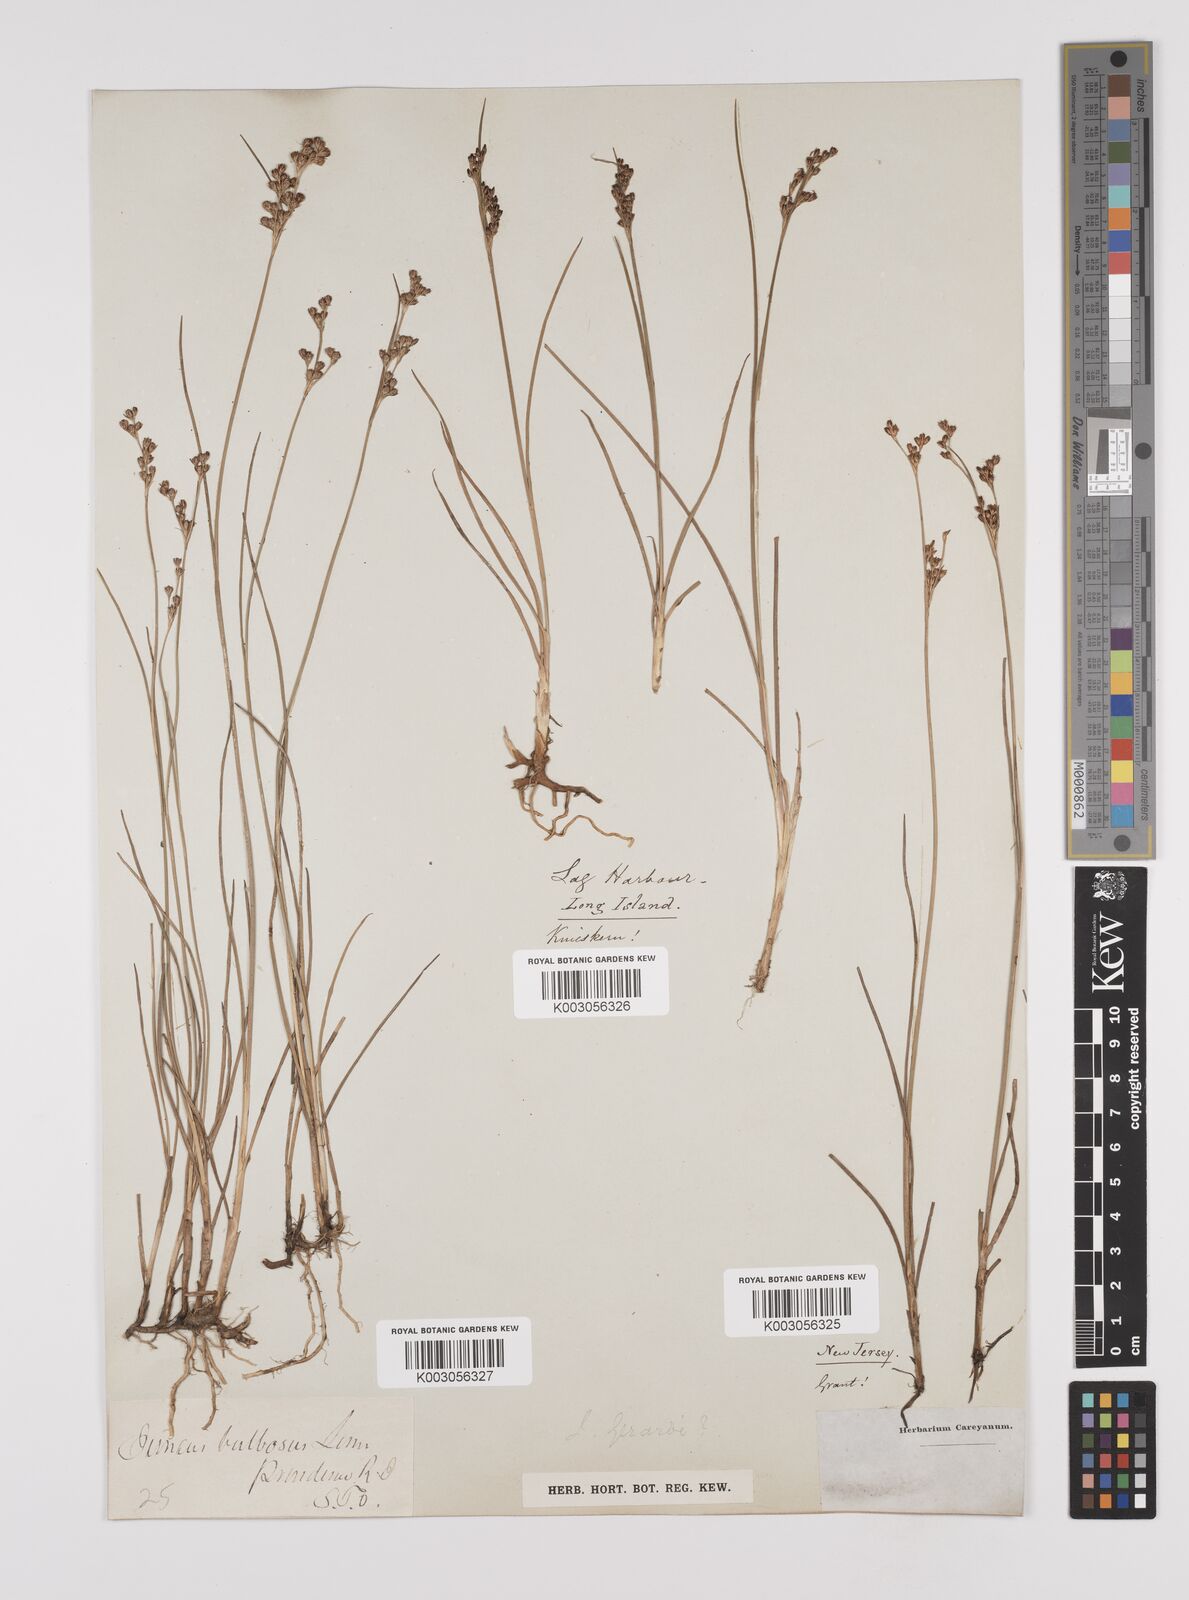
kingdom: Plantae
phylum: Tracheophyta
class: Liliopsida
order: Poales
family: Juncaceae
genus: Juncus
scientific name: Juncus gerardi
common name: Saltmarsh rush
